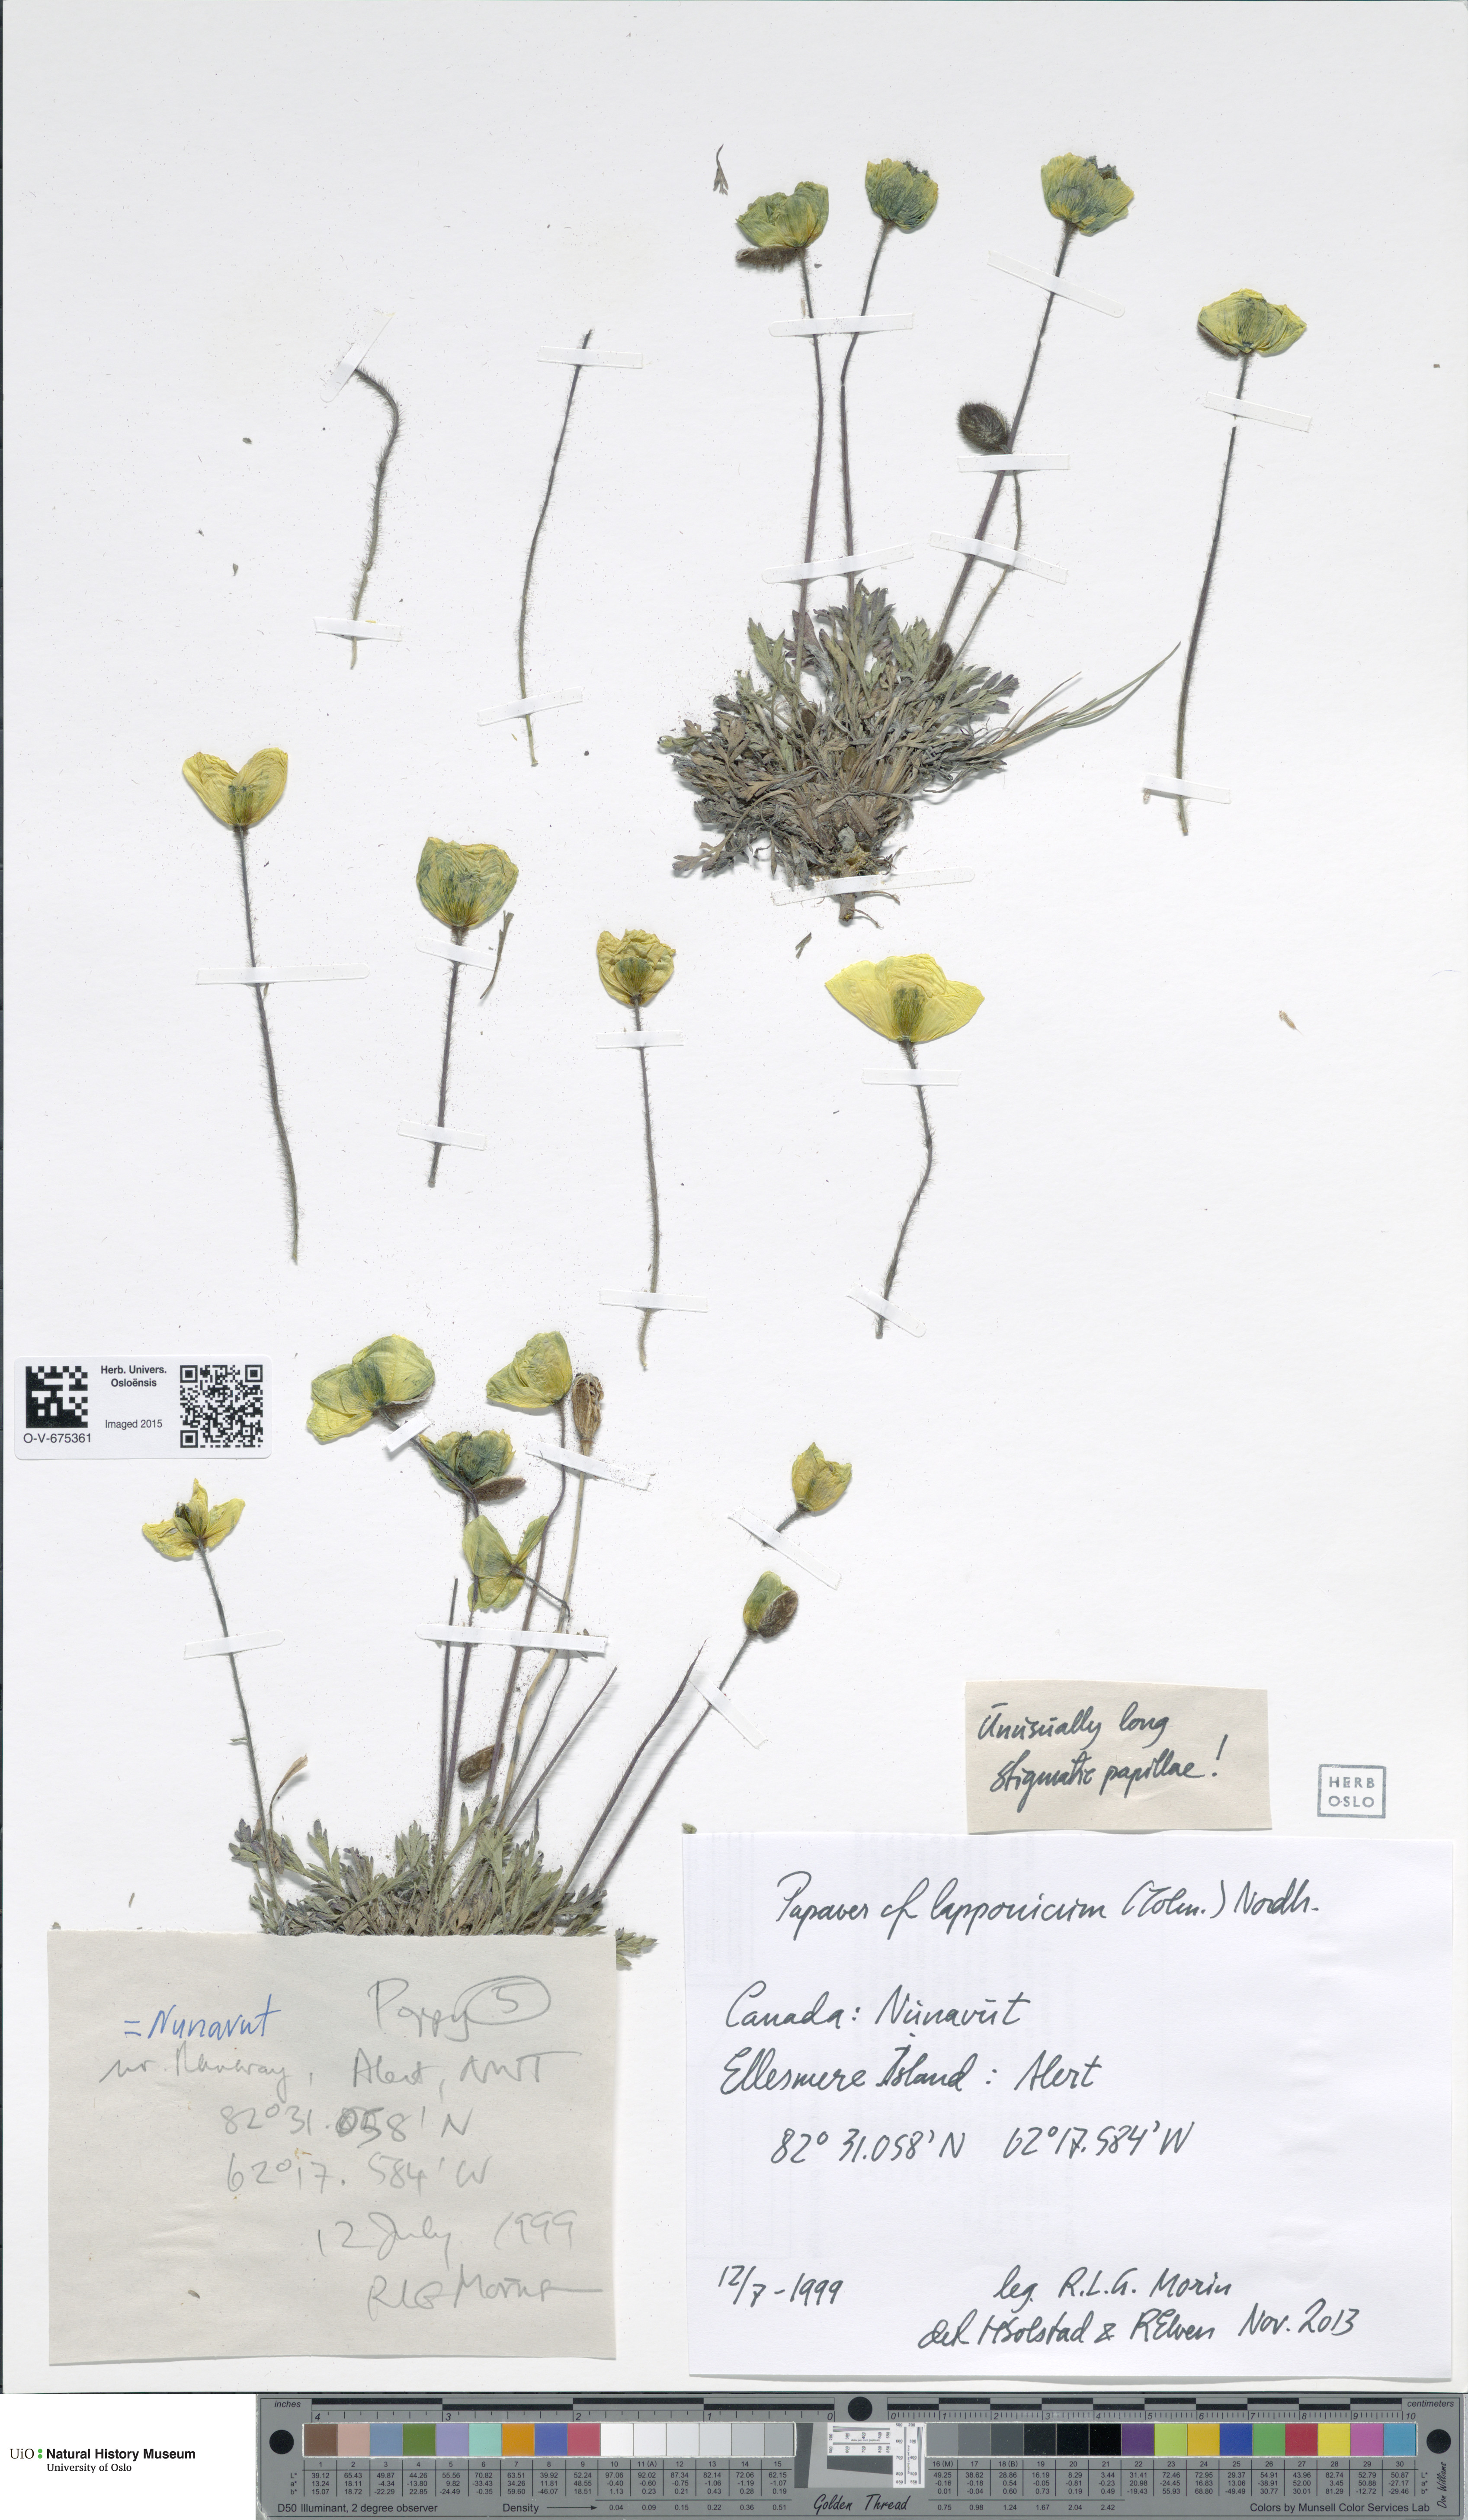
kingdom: Plantae
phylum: Tracheophyta
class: Magnoliopsida
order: Ranunculales
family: Papaveraceae
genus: Papaver
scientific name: Papaver lapponicum
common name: Lapland poppy
